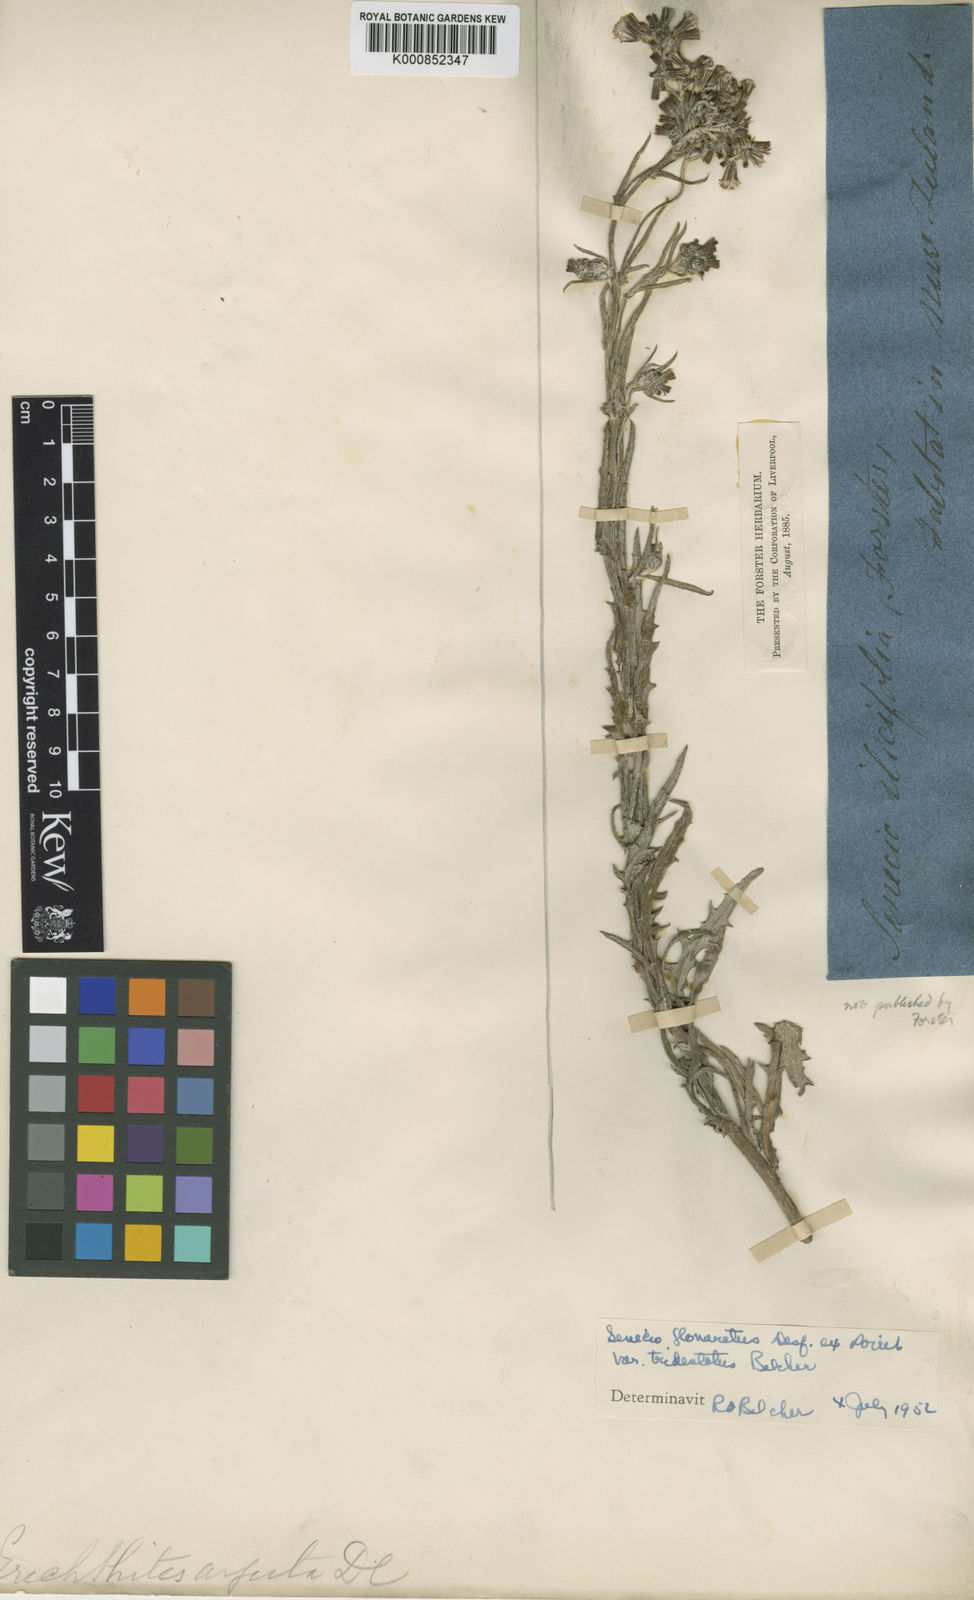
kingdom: Plantae
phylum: Tracheophyta
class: Magnoliopsida
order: Asterales
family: Asteraceae
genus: Senecio
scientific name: Senecio glomeratus
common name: Cutleaf burnweed
